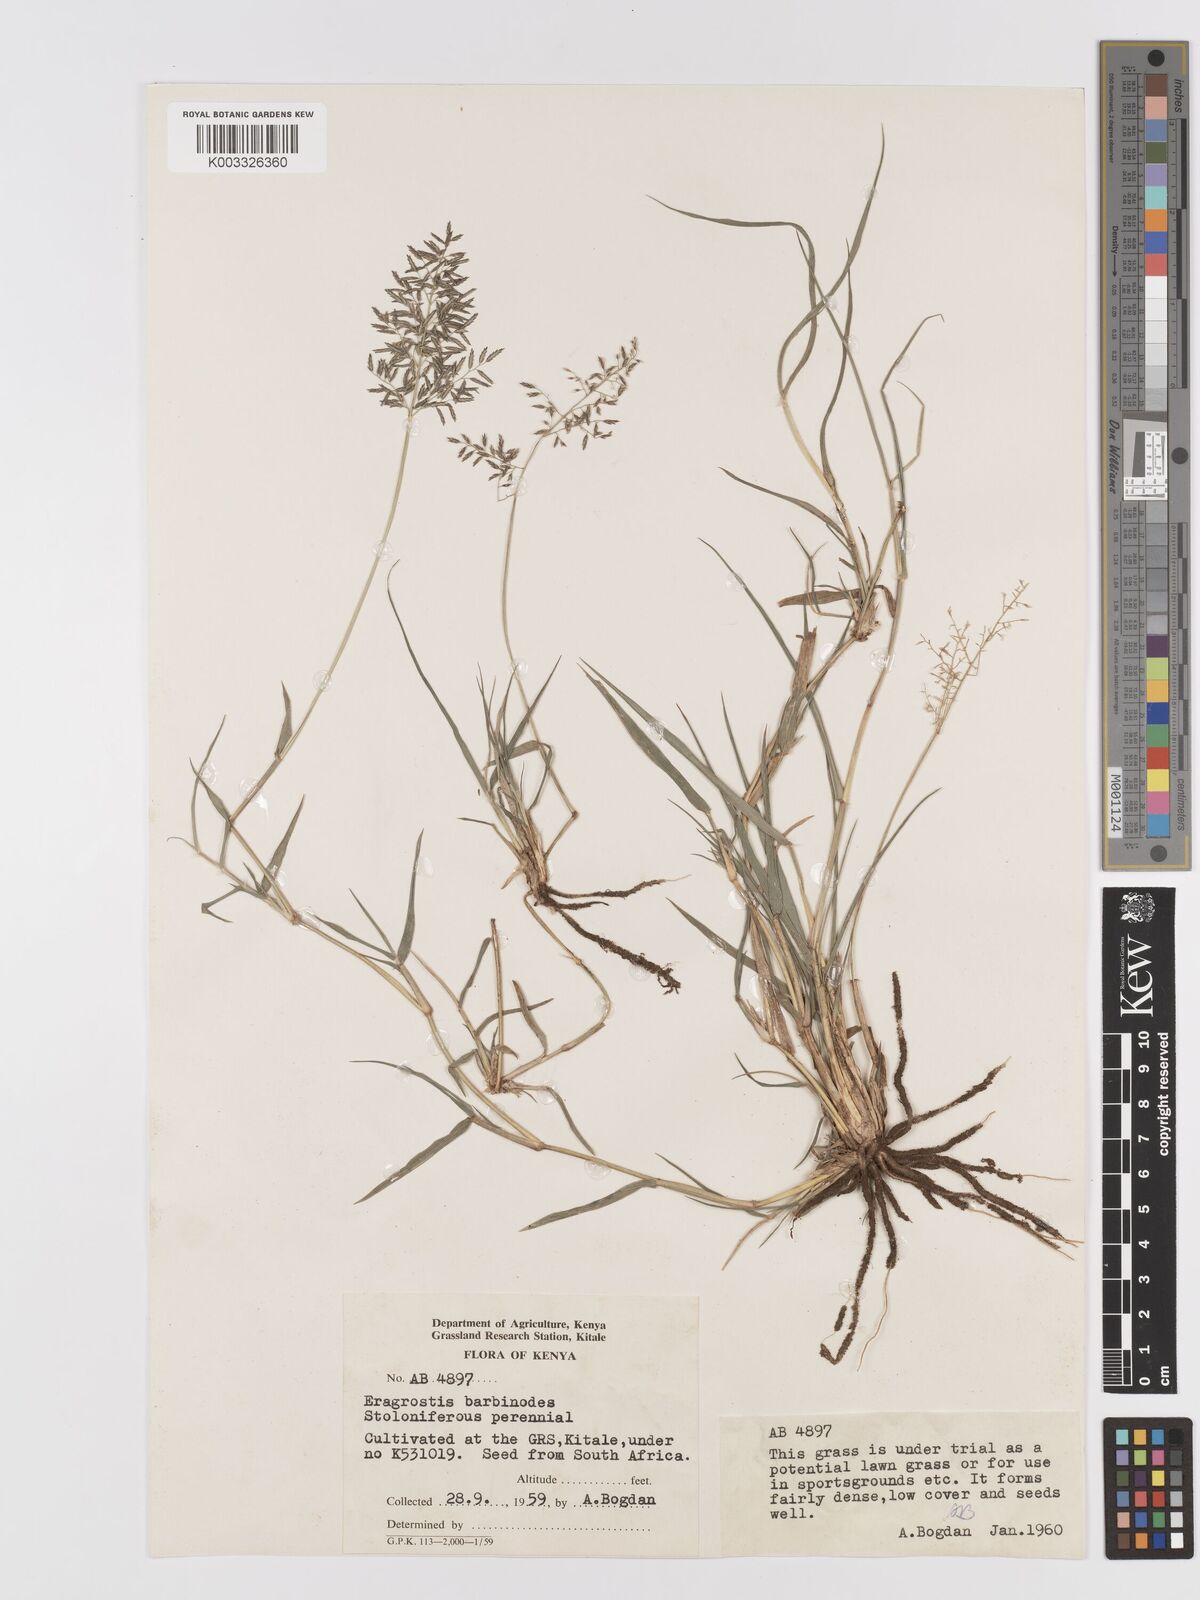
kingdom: Plantae
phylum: Tracheophyta
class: Liliopsida
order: Poales
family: Poaceae
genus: Eragrostis
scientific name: Eragrostis barbinodis
